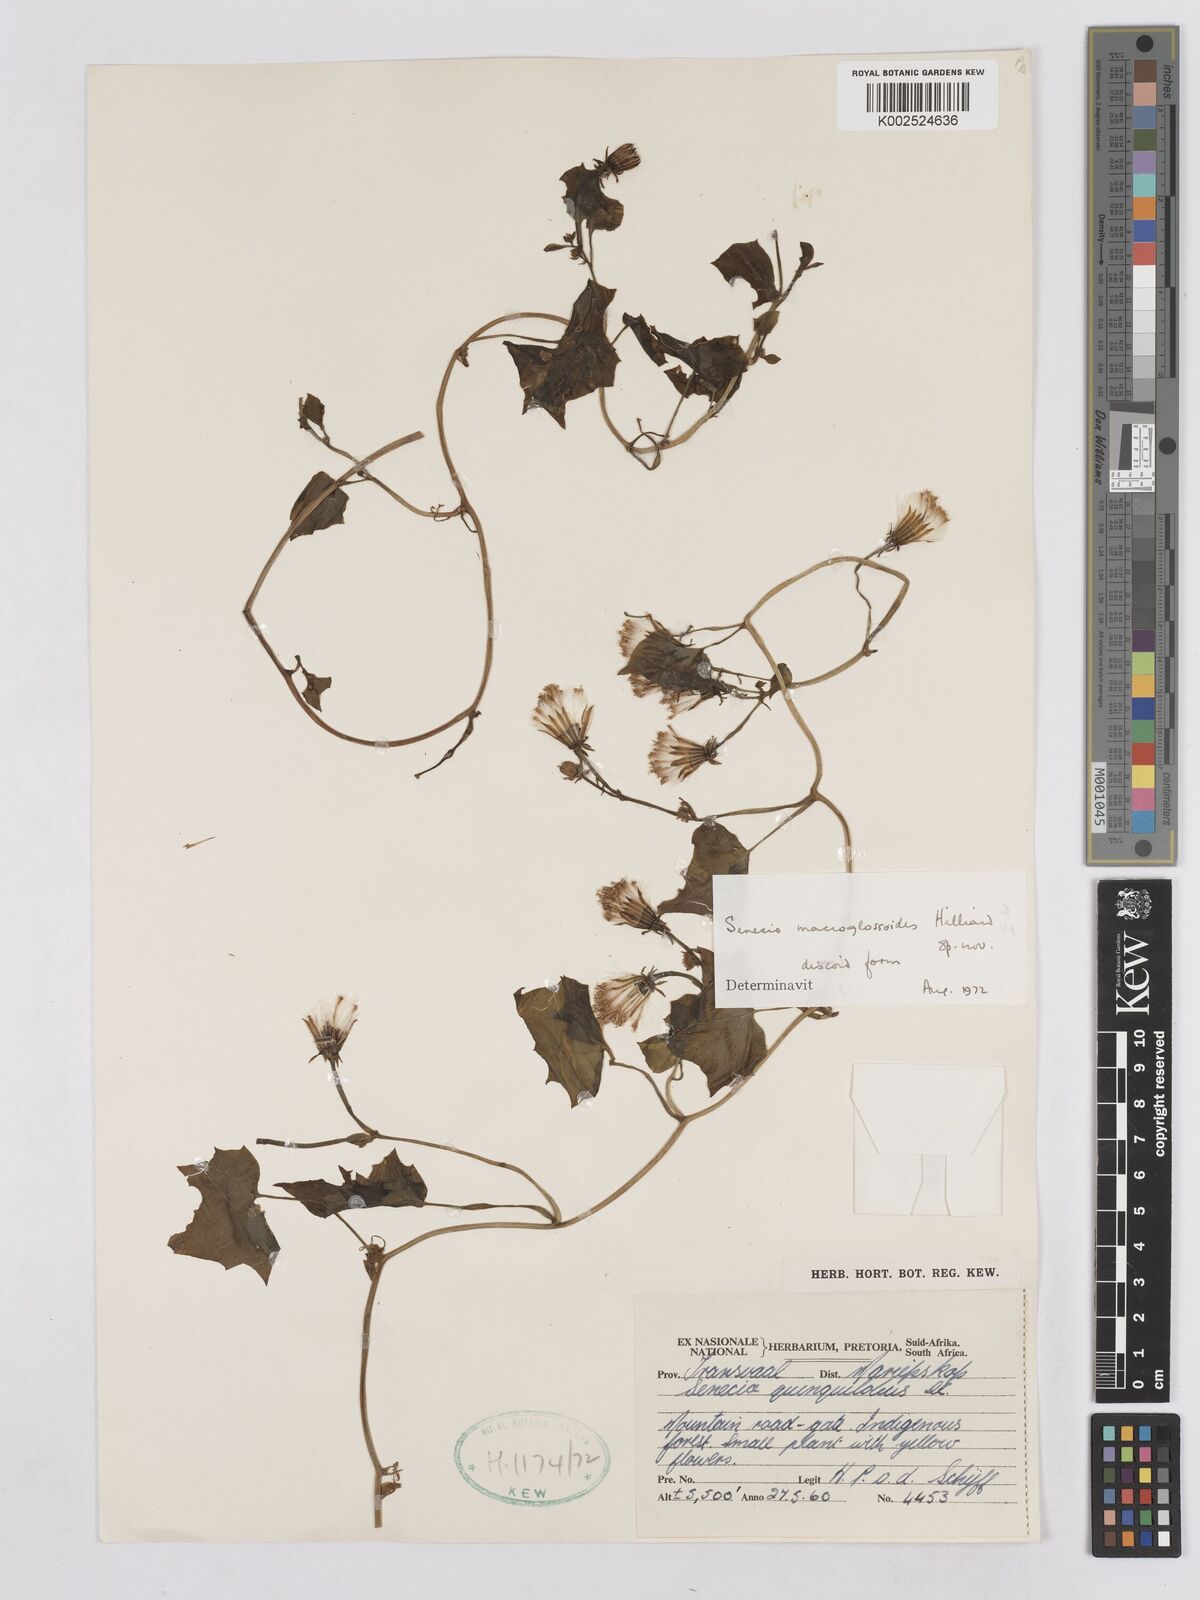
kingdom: Plantae
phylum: Tracheophyta
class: Magnoliopsida
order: Asterales
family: Asteraceae
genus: Senecio
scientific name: Senecio macroglossoides
